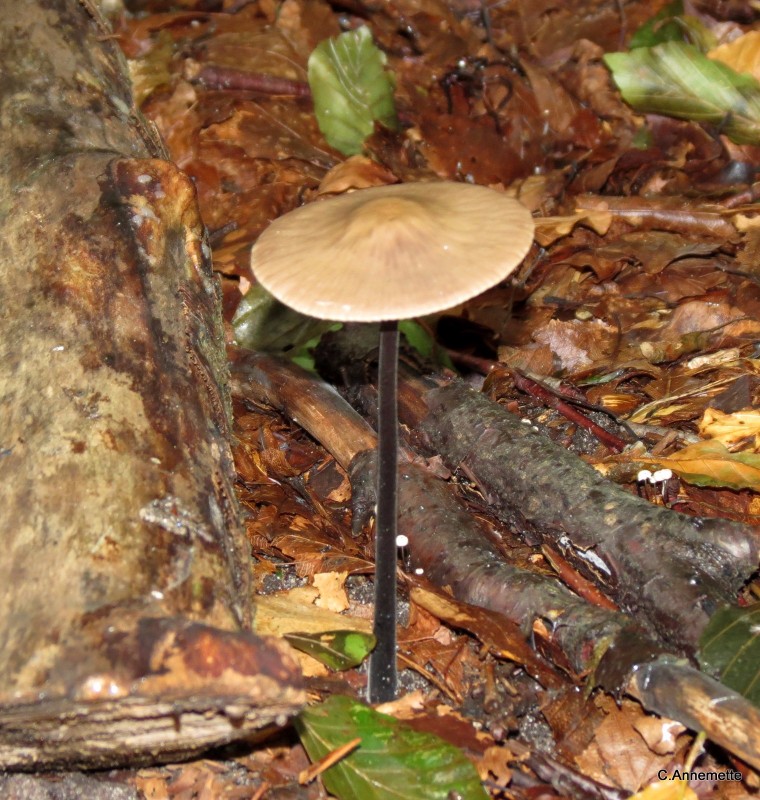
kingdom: Fungi
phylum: Basidiomycota
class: Agaricomycetes
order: Agaricales
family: Omphalotaceae
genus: Mycetinis
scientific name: Mycetinis alliaceus
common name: stor løghat
